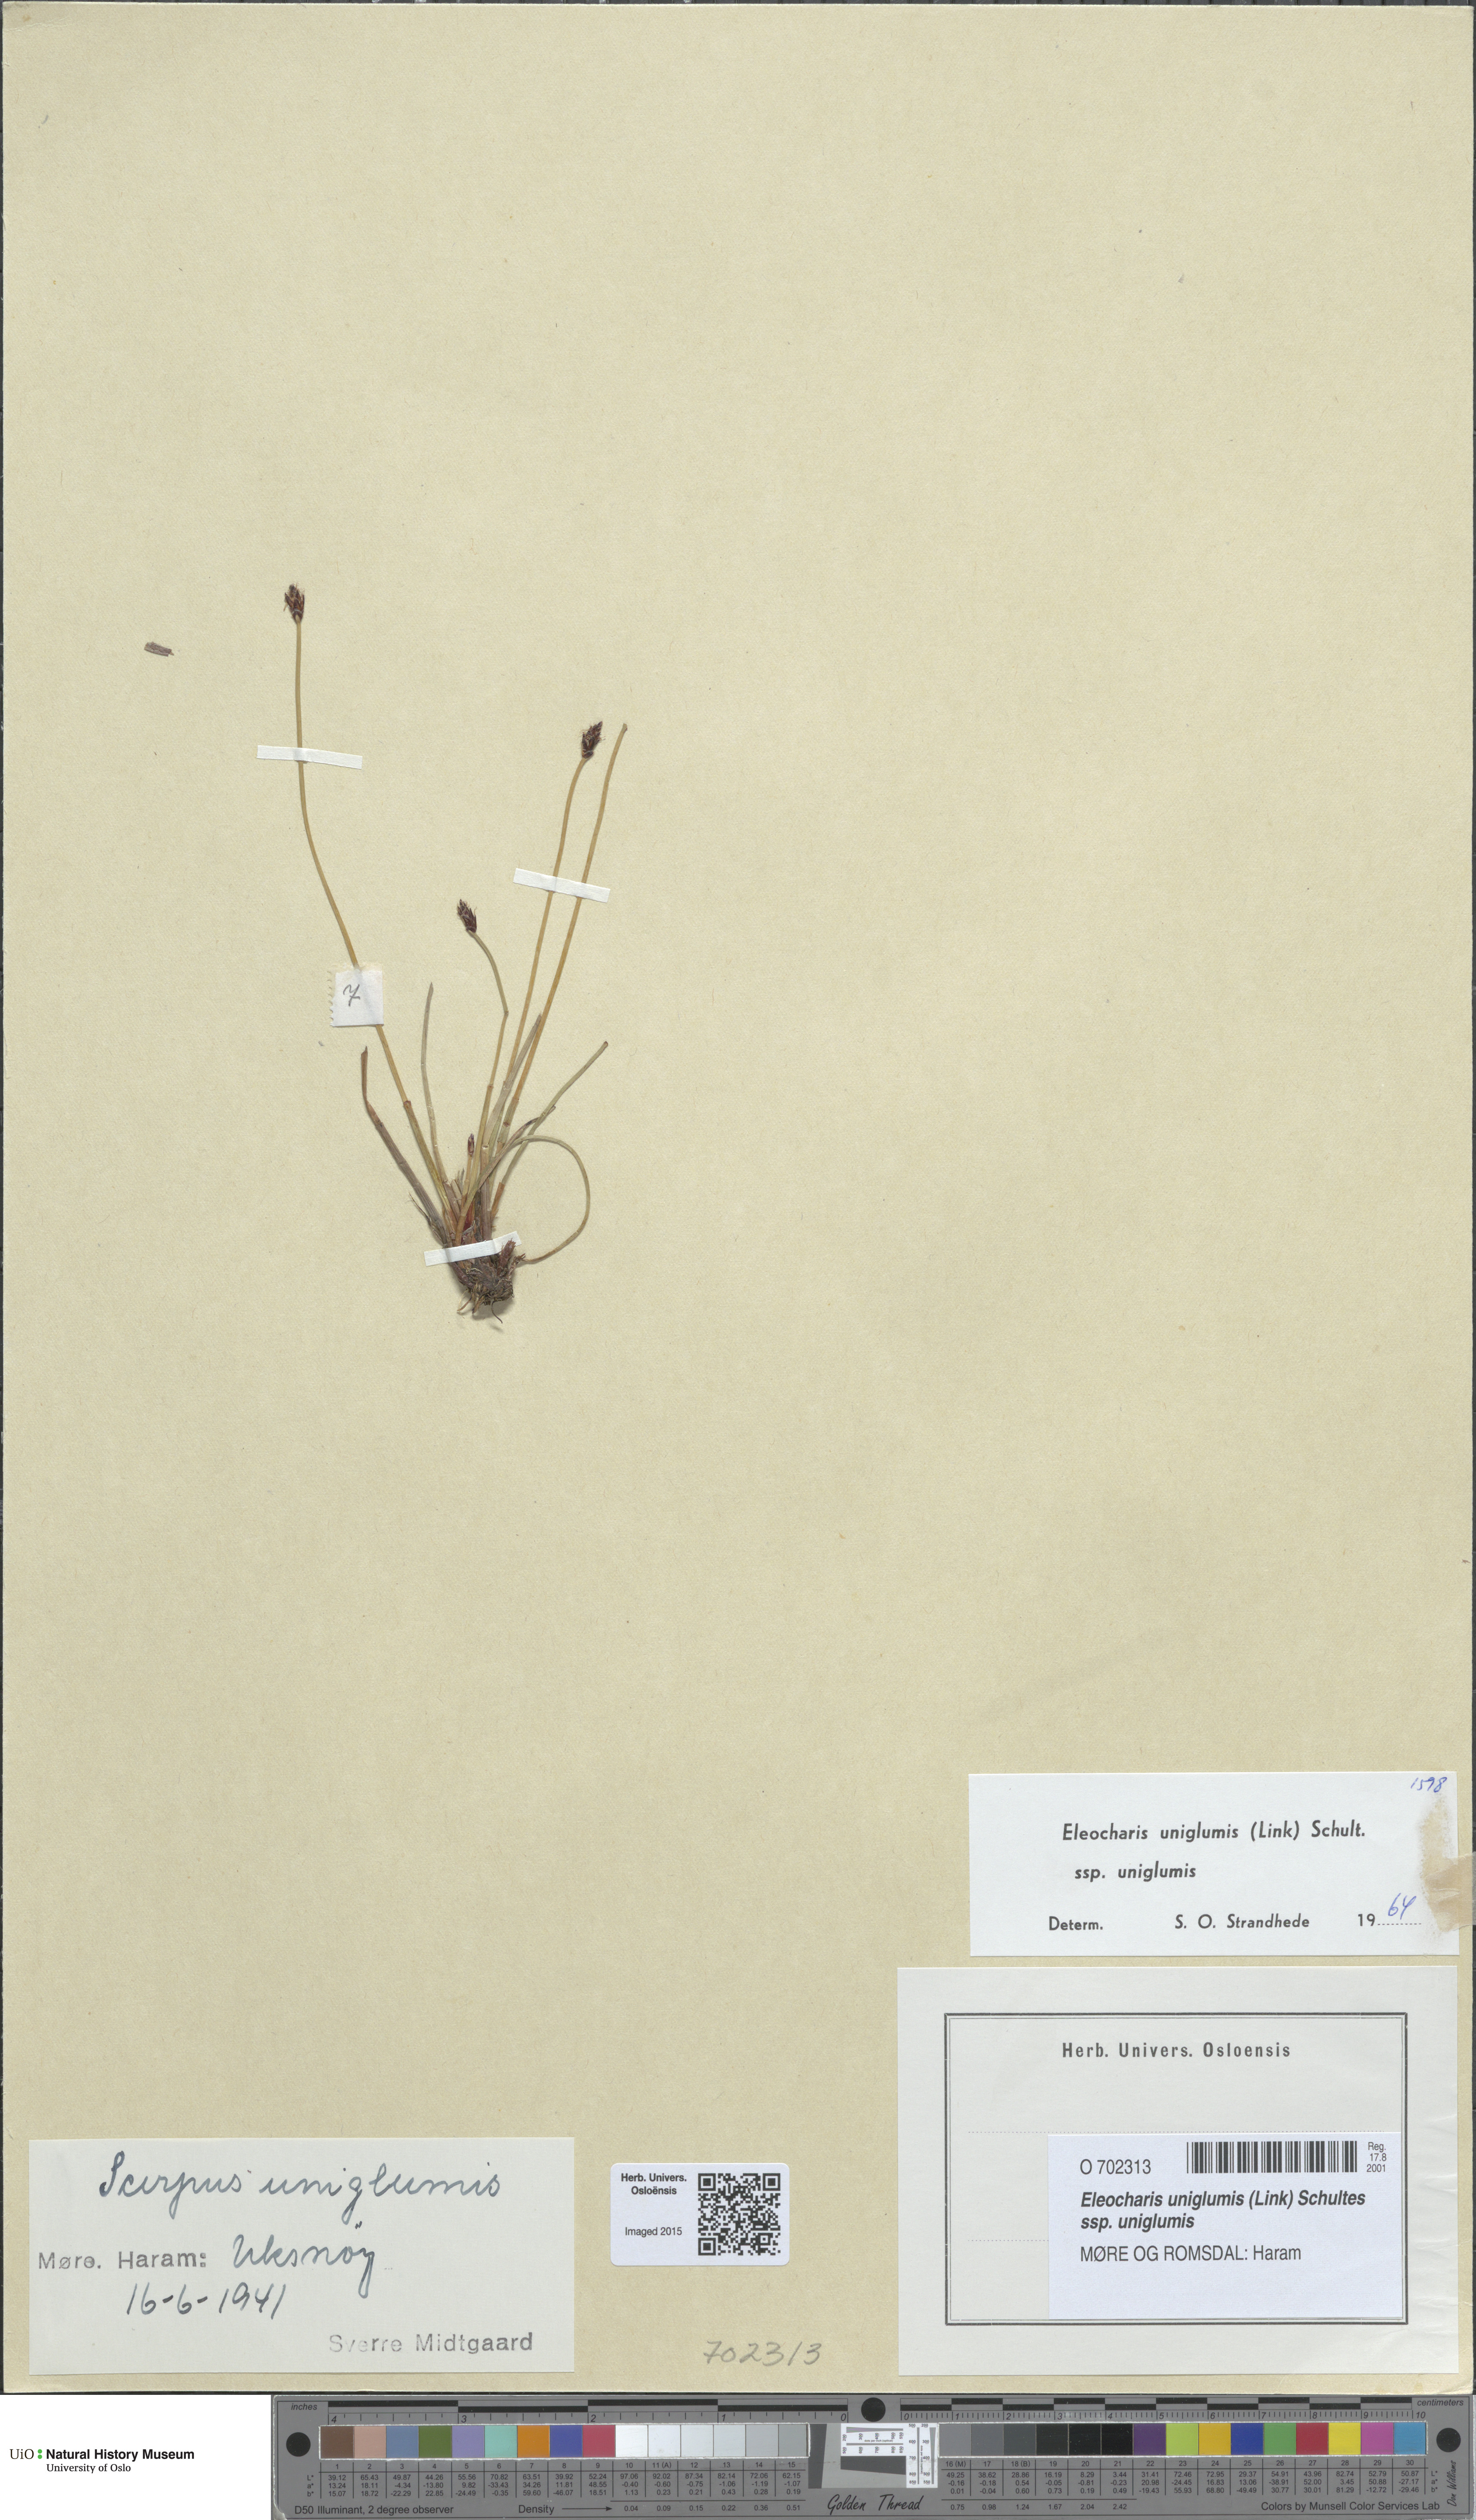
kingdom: Plantae
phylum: Tracheophyta
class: Liliopsida
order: Poales
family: Cyperaceae
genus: Eleocharis
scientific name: Eleocharis uniglumis
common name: Slender spike-rush
